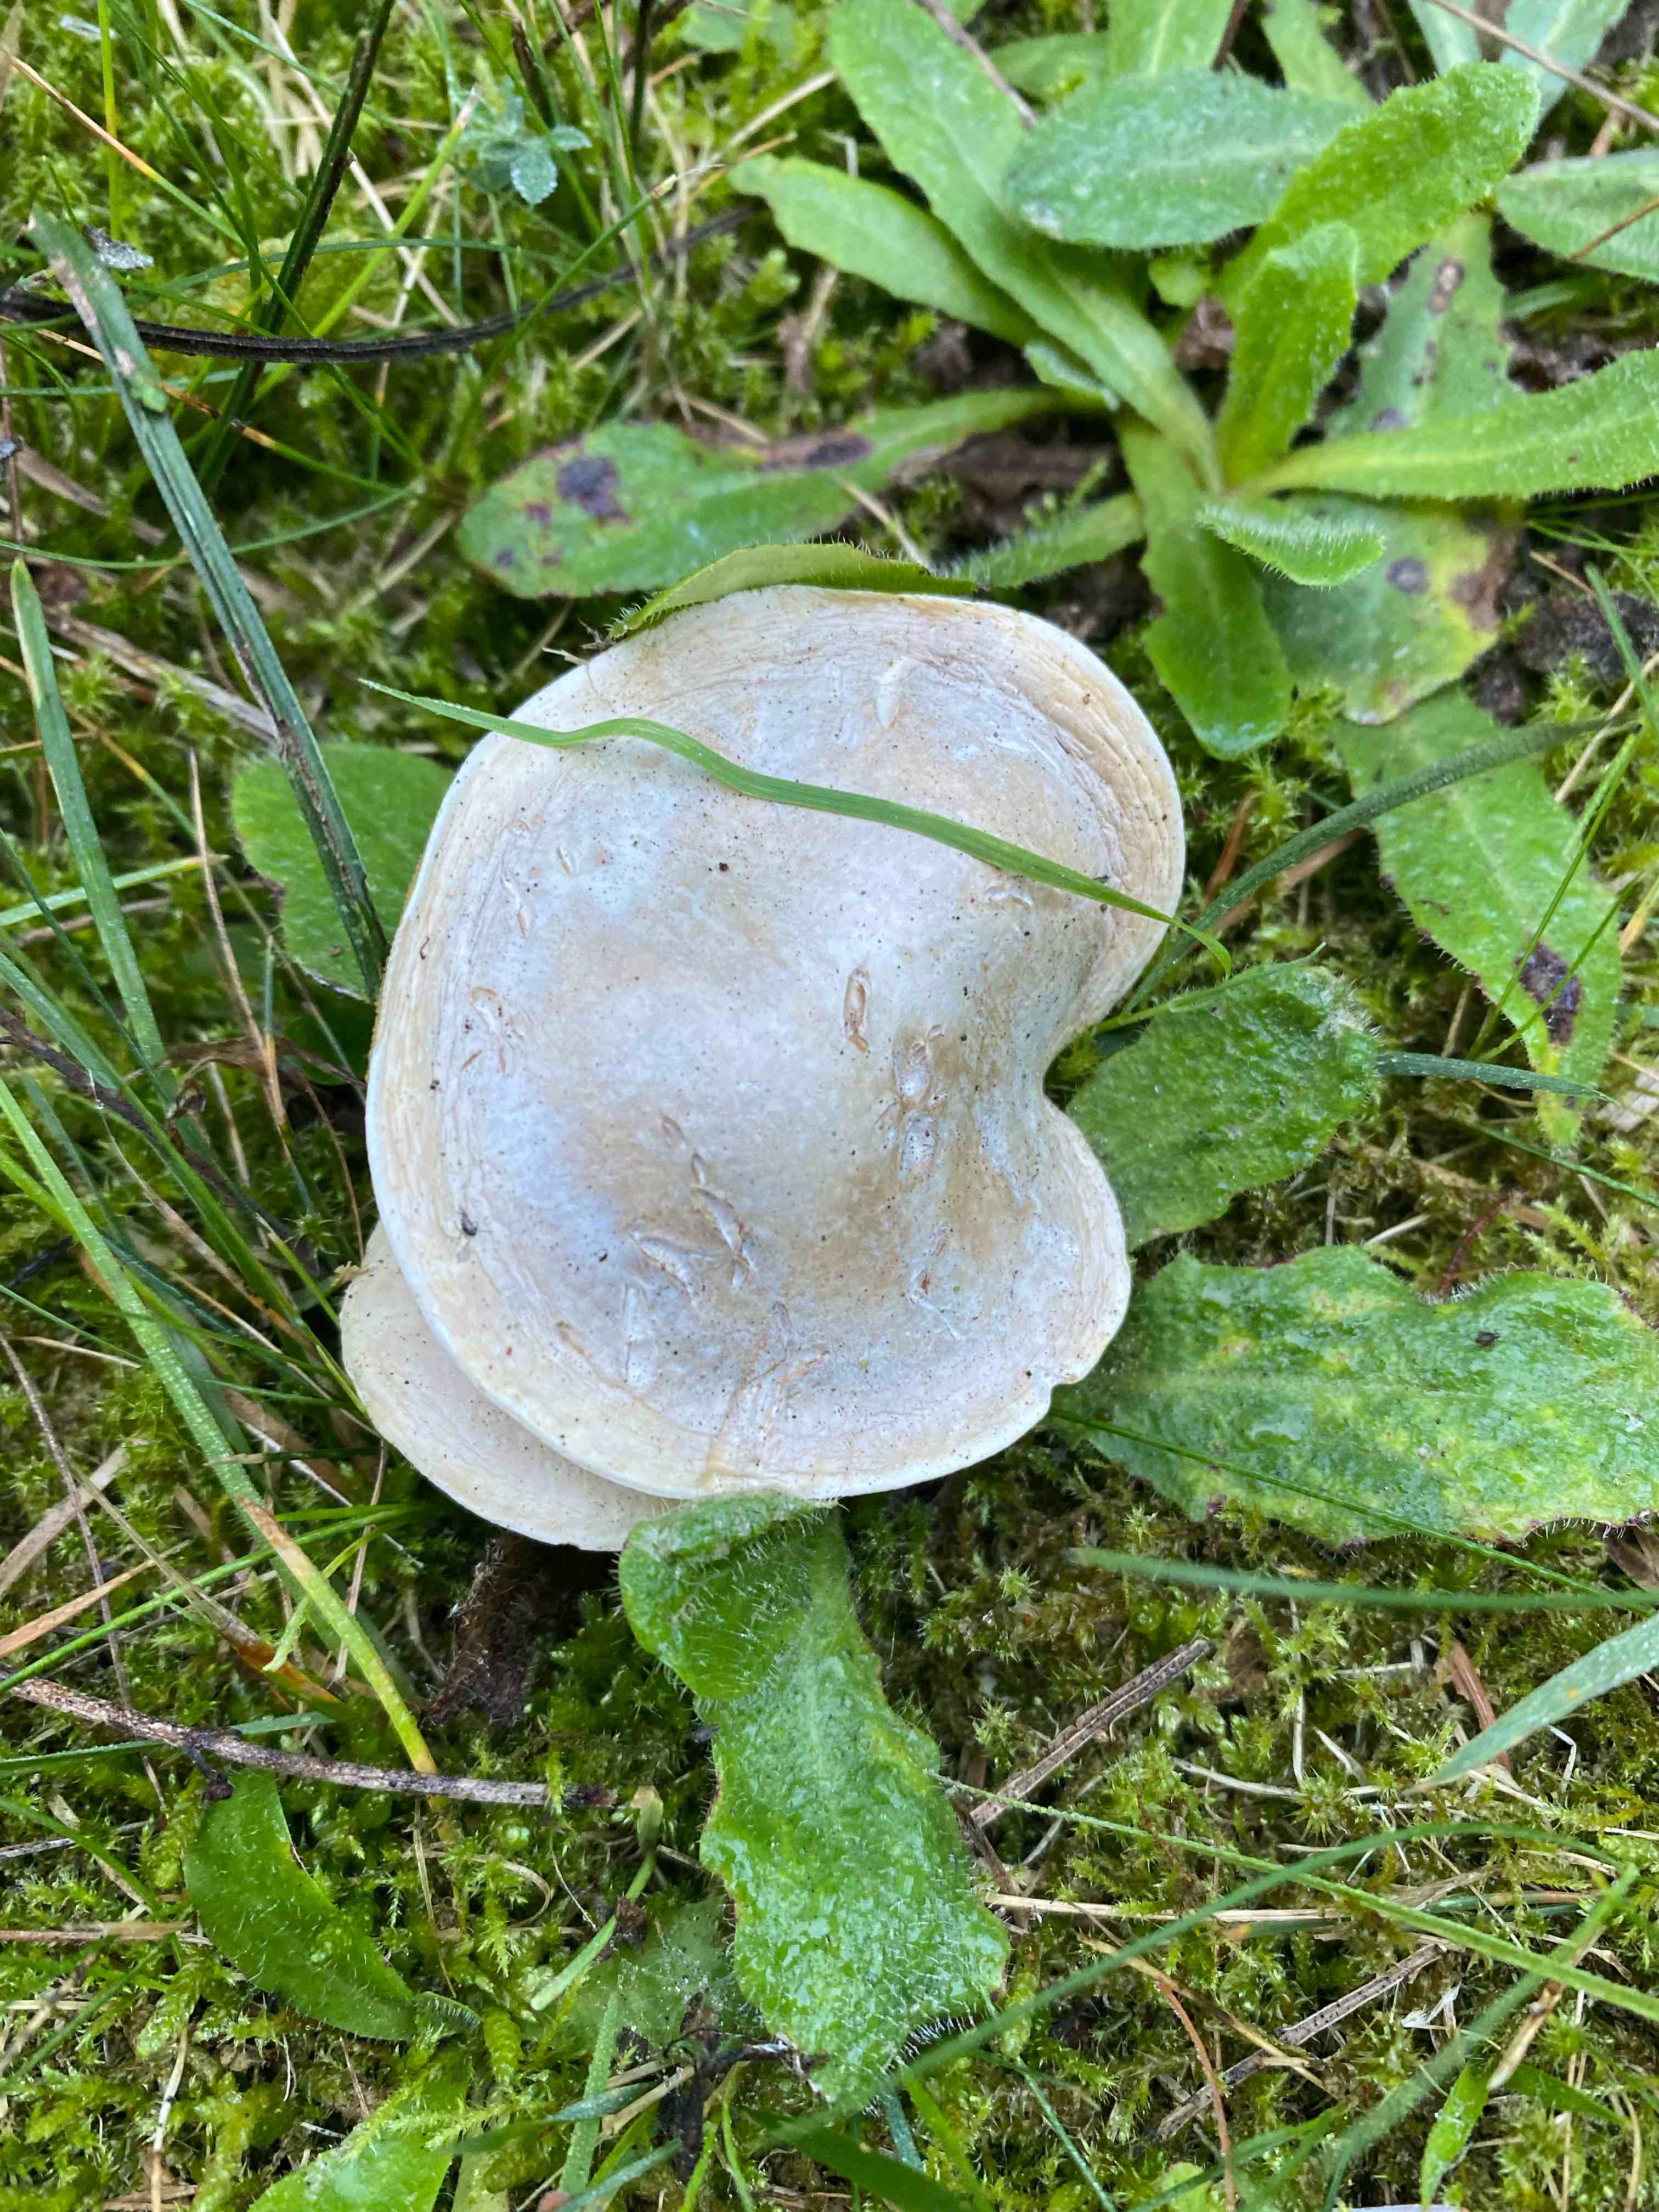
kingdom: Fungi
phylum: Basidiomycota
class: Agaricomycetes
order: Agaricales
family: Entolomataceae
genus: Clitopilus
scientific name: Clitopilus prunulus
